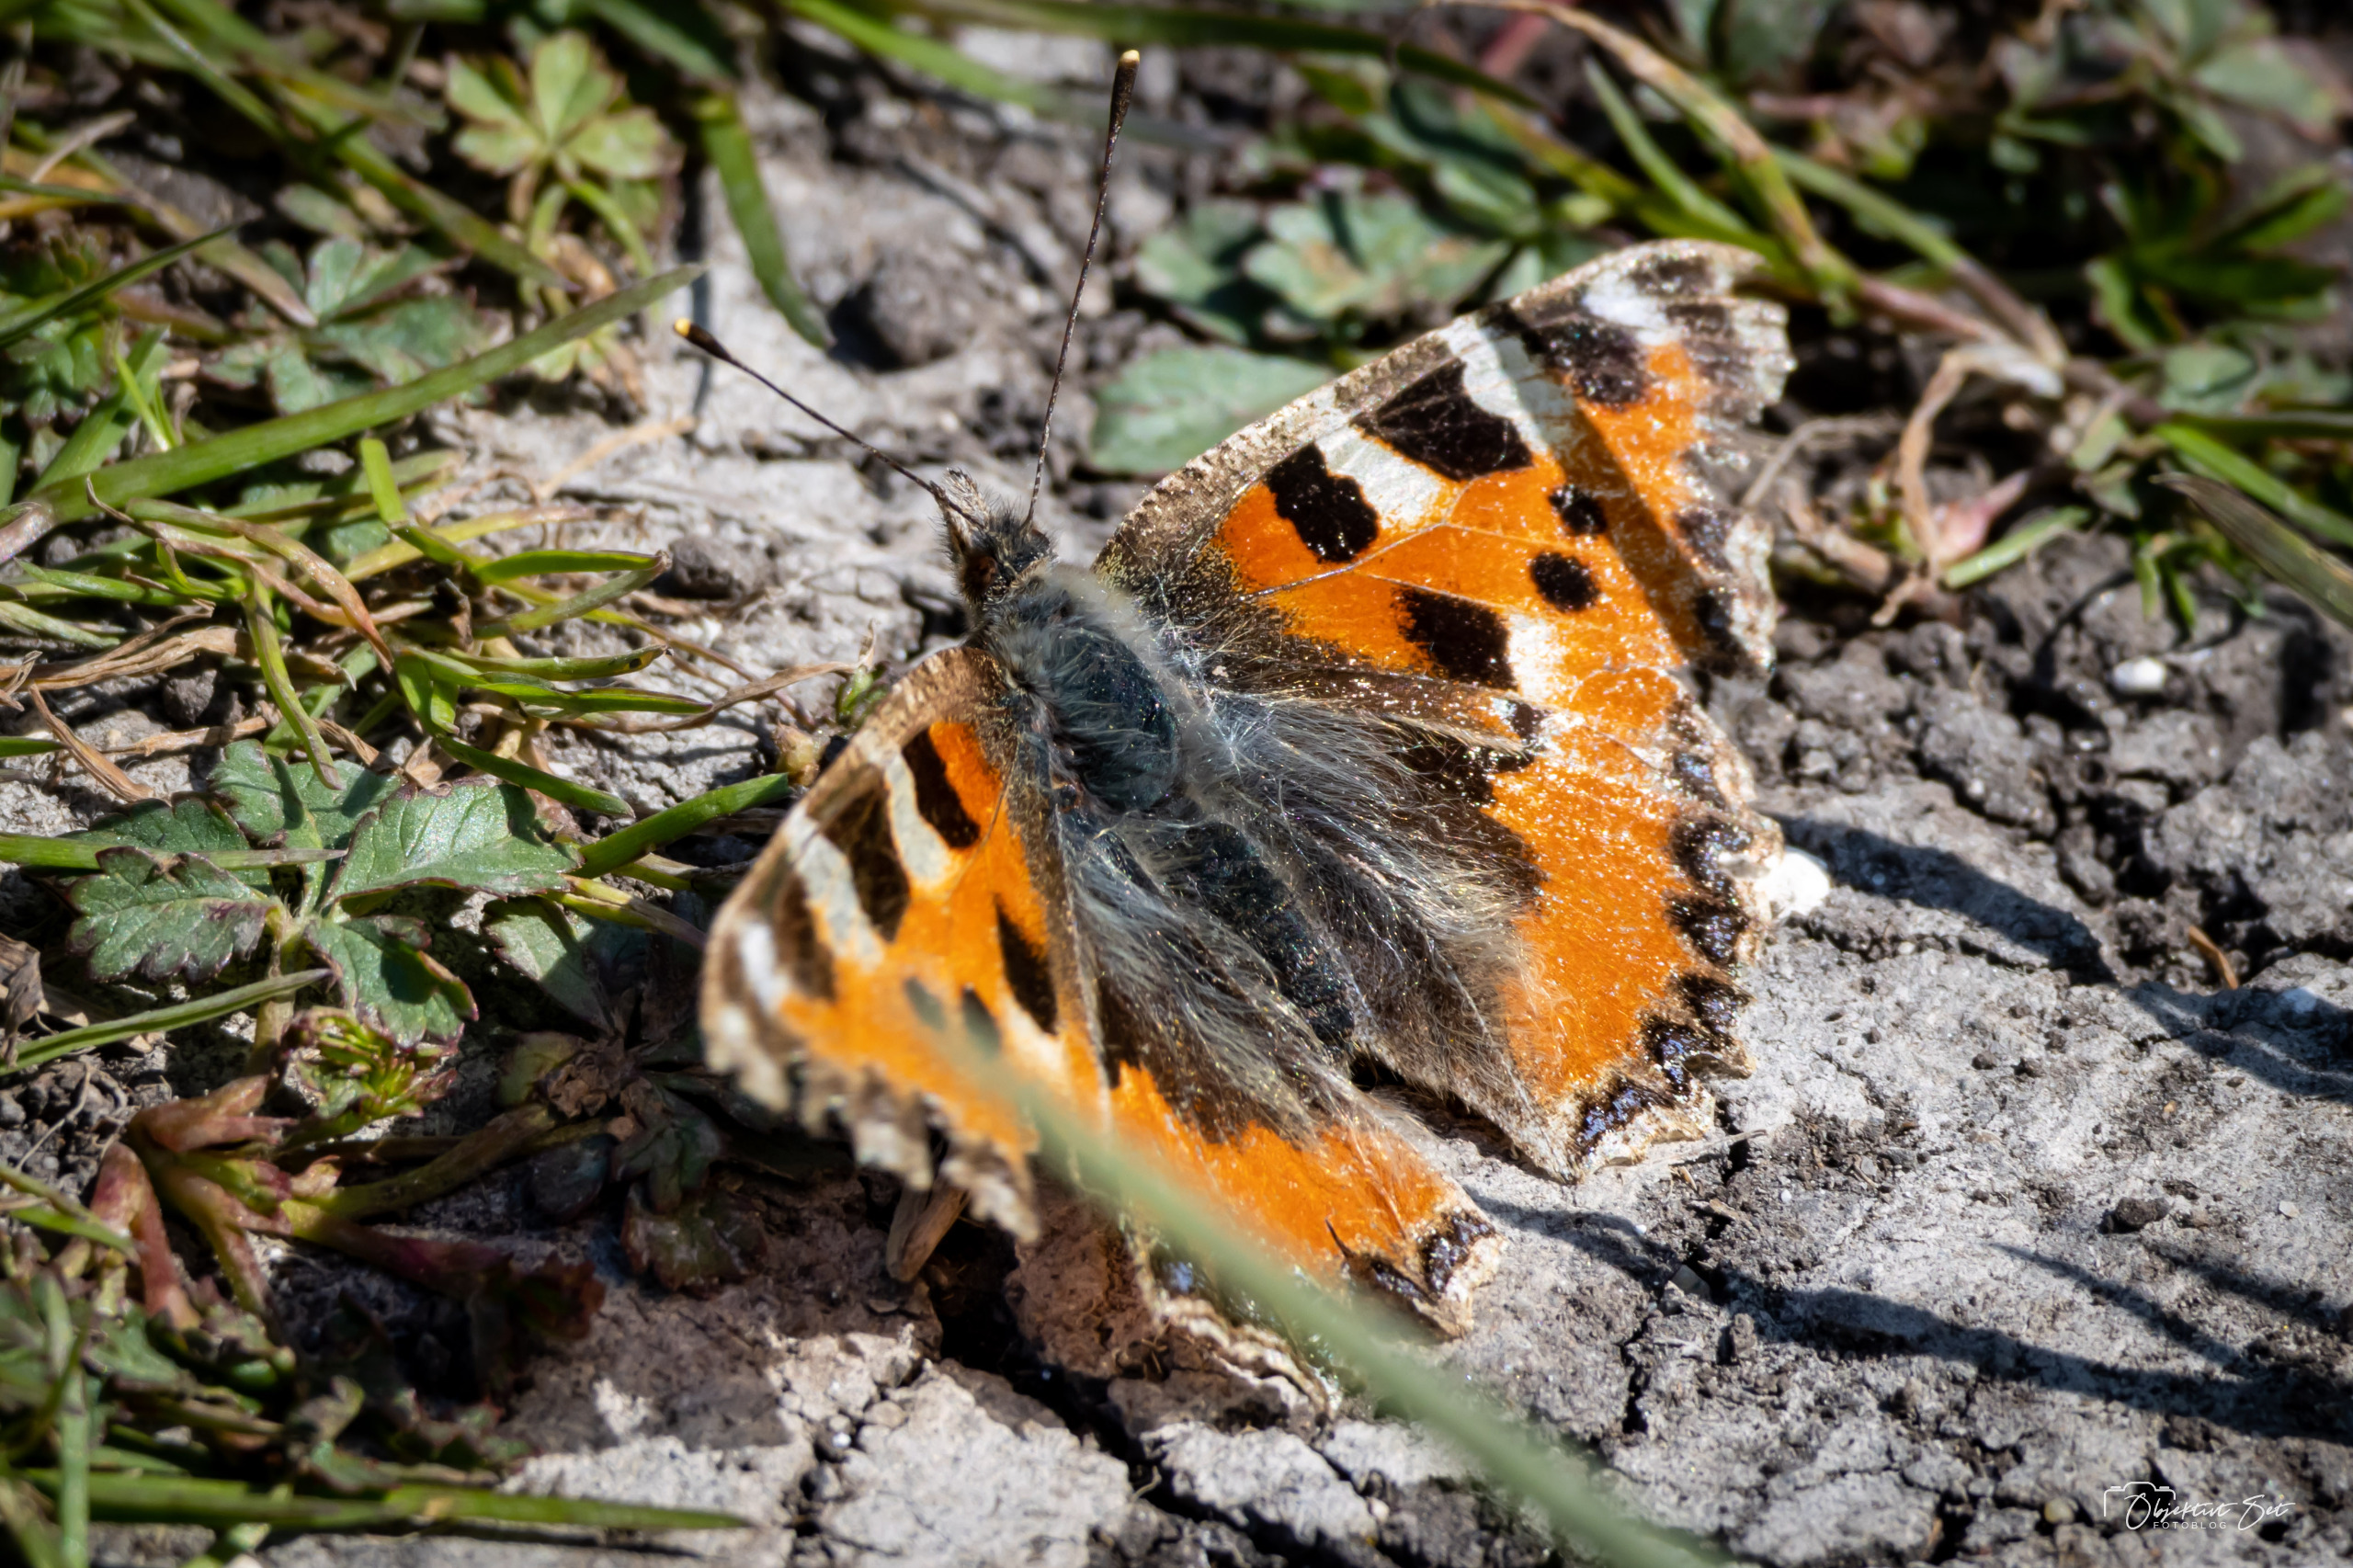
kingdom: Animalia
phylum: Arthropoda
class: Insecta
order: Lepidoptera
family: Nymphalidae
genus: Aglais
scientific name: Aglais urticae
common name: Nældens takvinge
